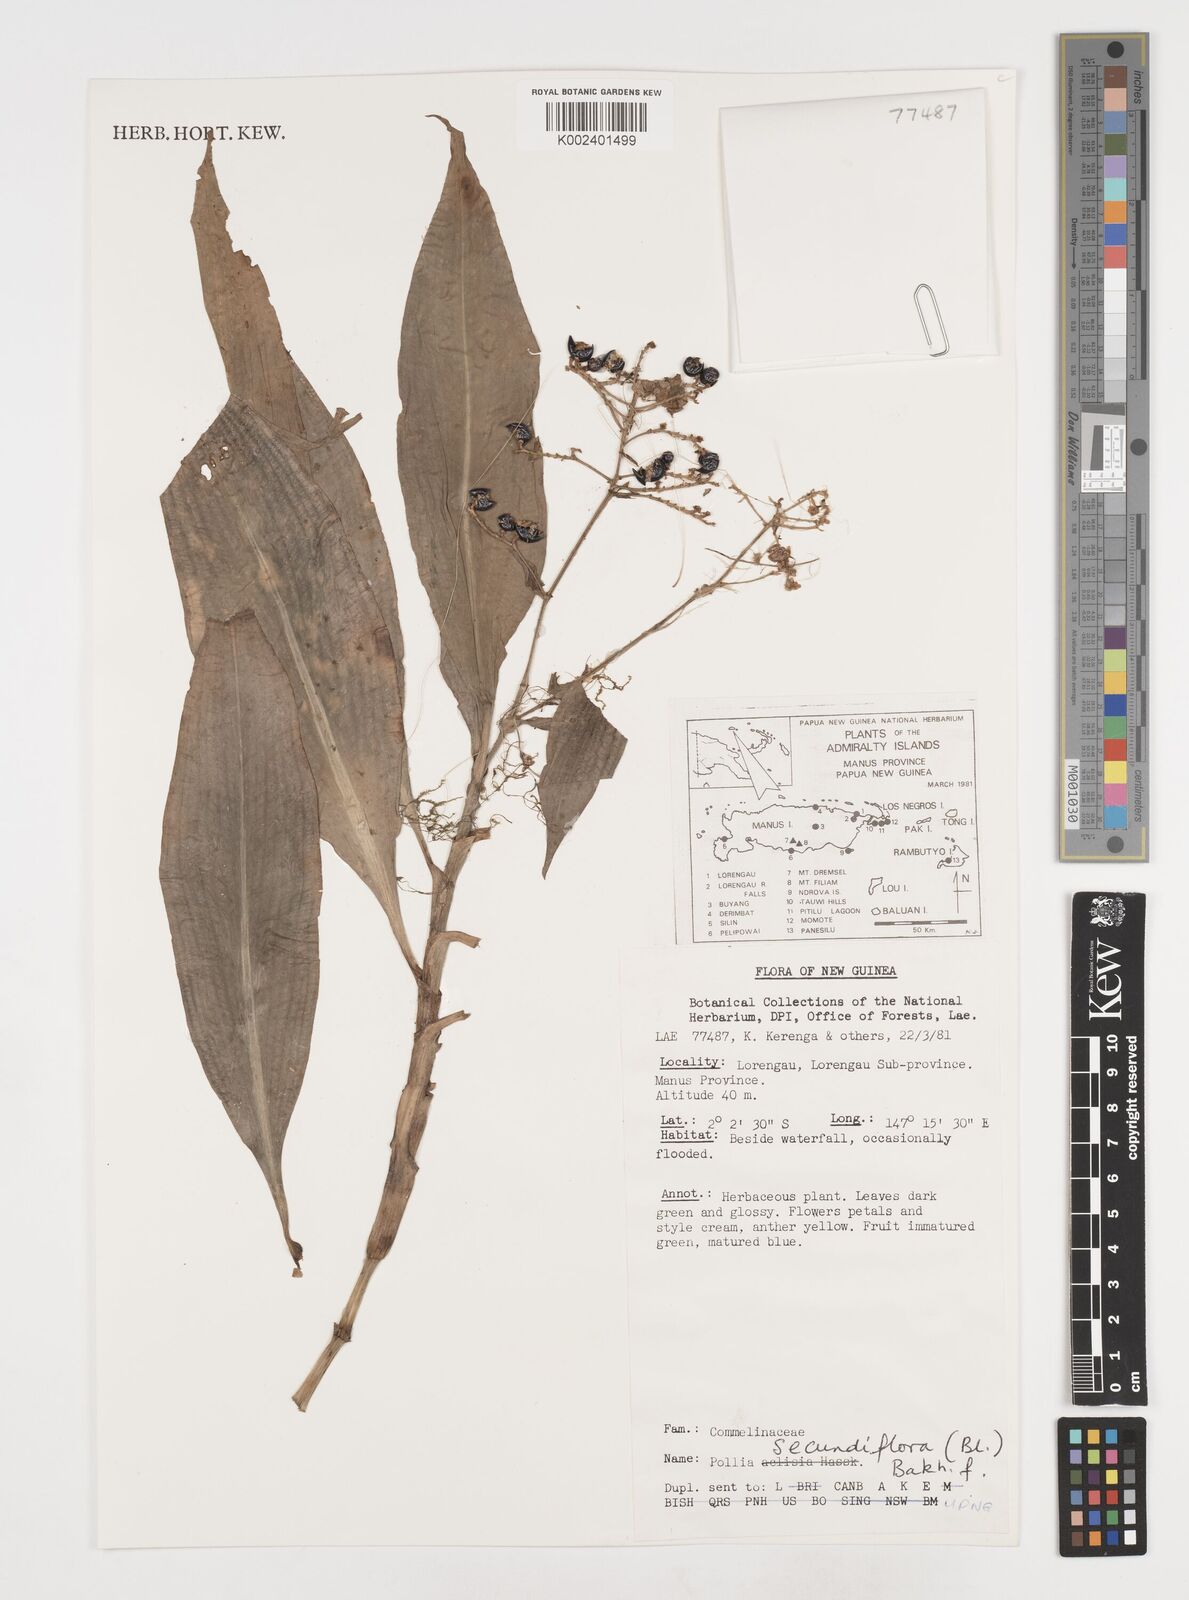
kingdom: Plantae
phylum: Tracheophyta
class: Liliopsida
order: Commelinales
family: Commelinaceae
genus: Pollia
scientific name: Pollia secundiflora
